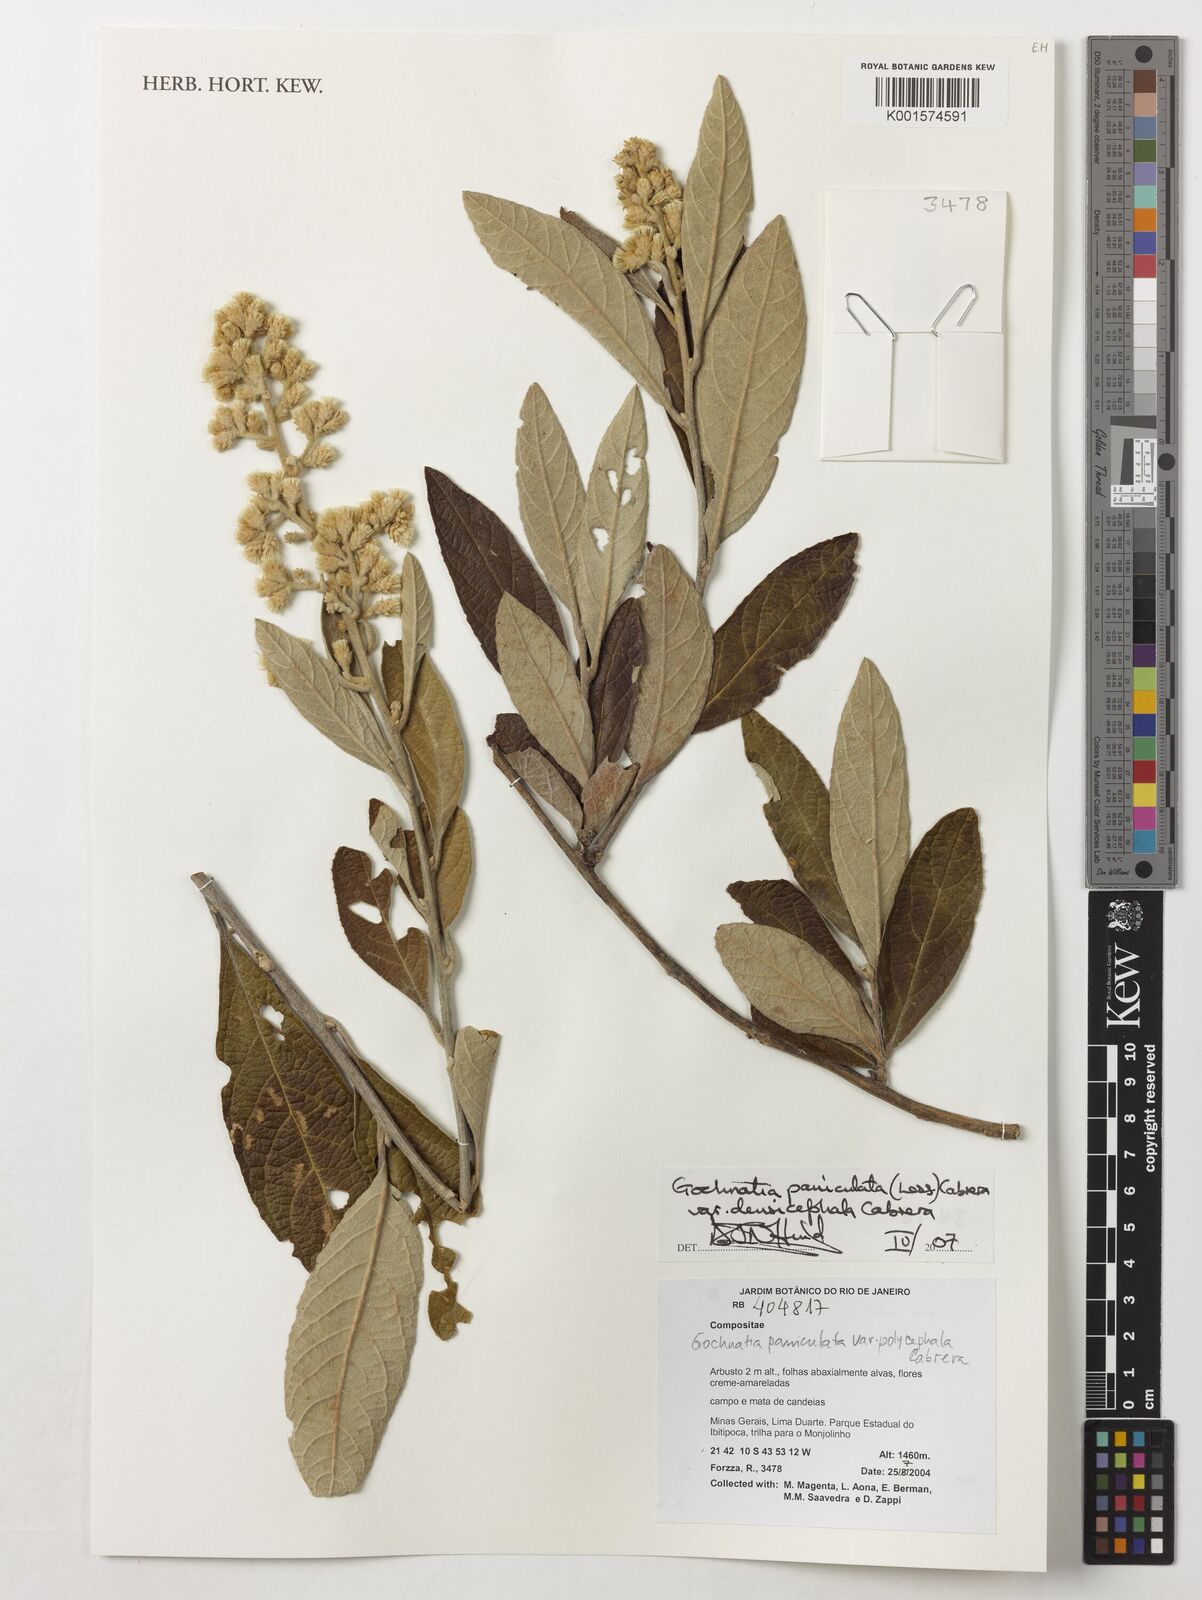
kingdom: Plantae
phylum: Tracheophyta
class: Magnoliopsida
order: Asterales
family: Asteraceae
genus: Moquiniastrum
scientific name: Moquiniastrum densicephalum
